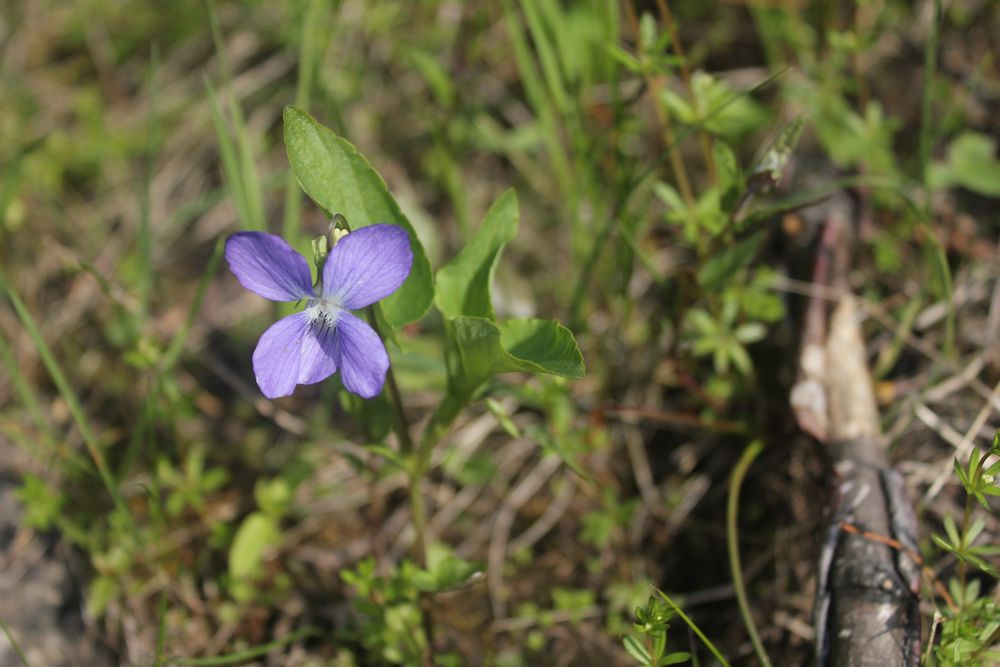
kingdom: Plantae
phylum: Tracheophyta
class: Magnoliopsida
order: Malpighiales
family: Violaceae
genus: Viola
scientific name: Viola canina
